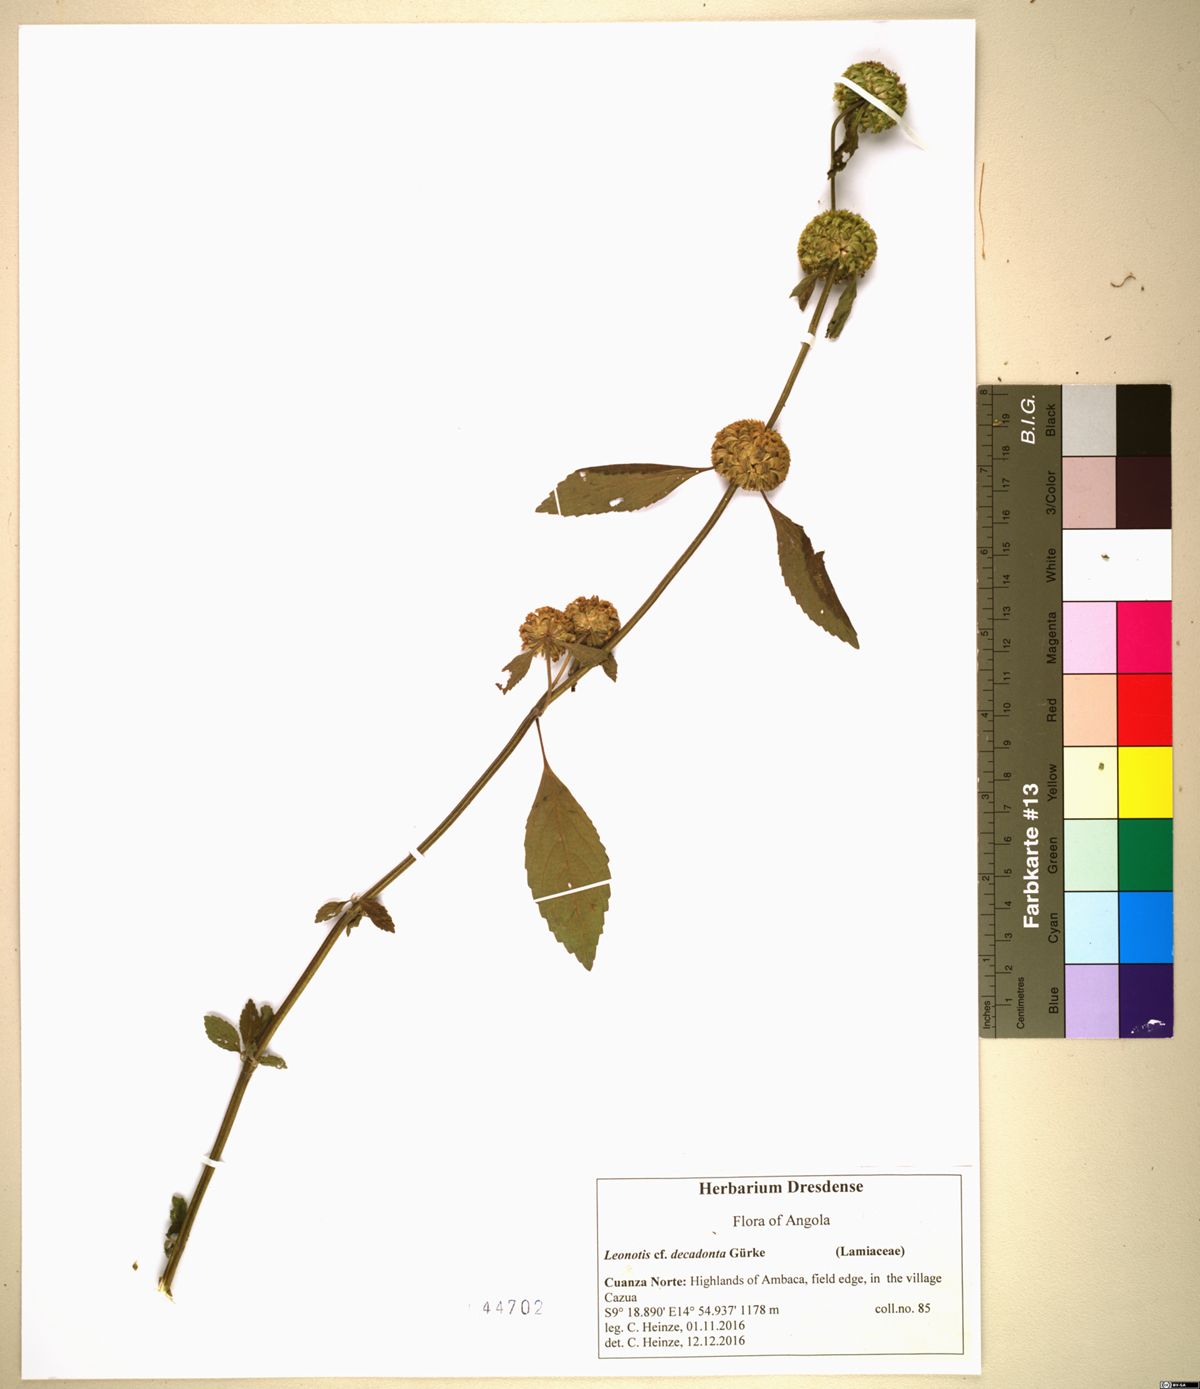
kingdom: Plantae
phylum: Tracheophyta
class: Magnoliopsida
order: Lamiales
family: Lamiaceae
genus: Leonotis
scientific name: Leonotis decadonta
